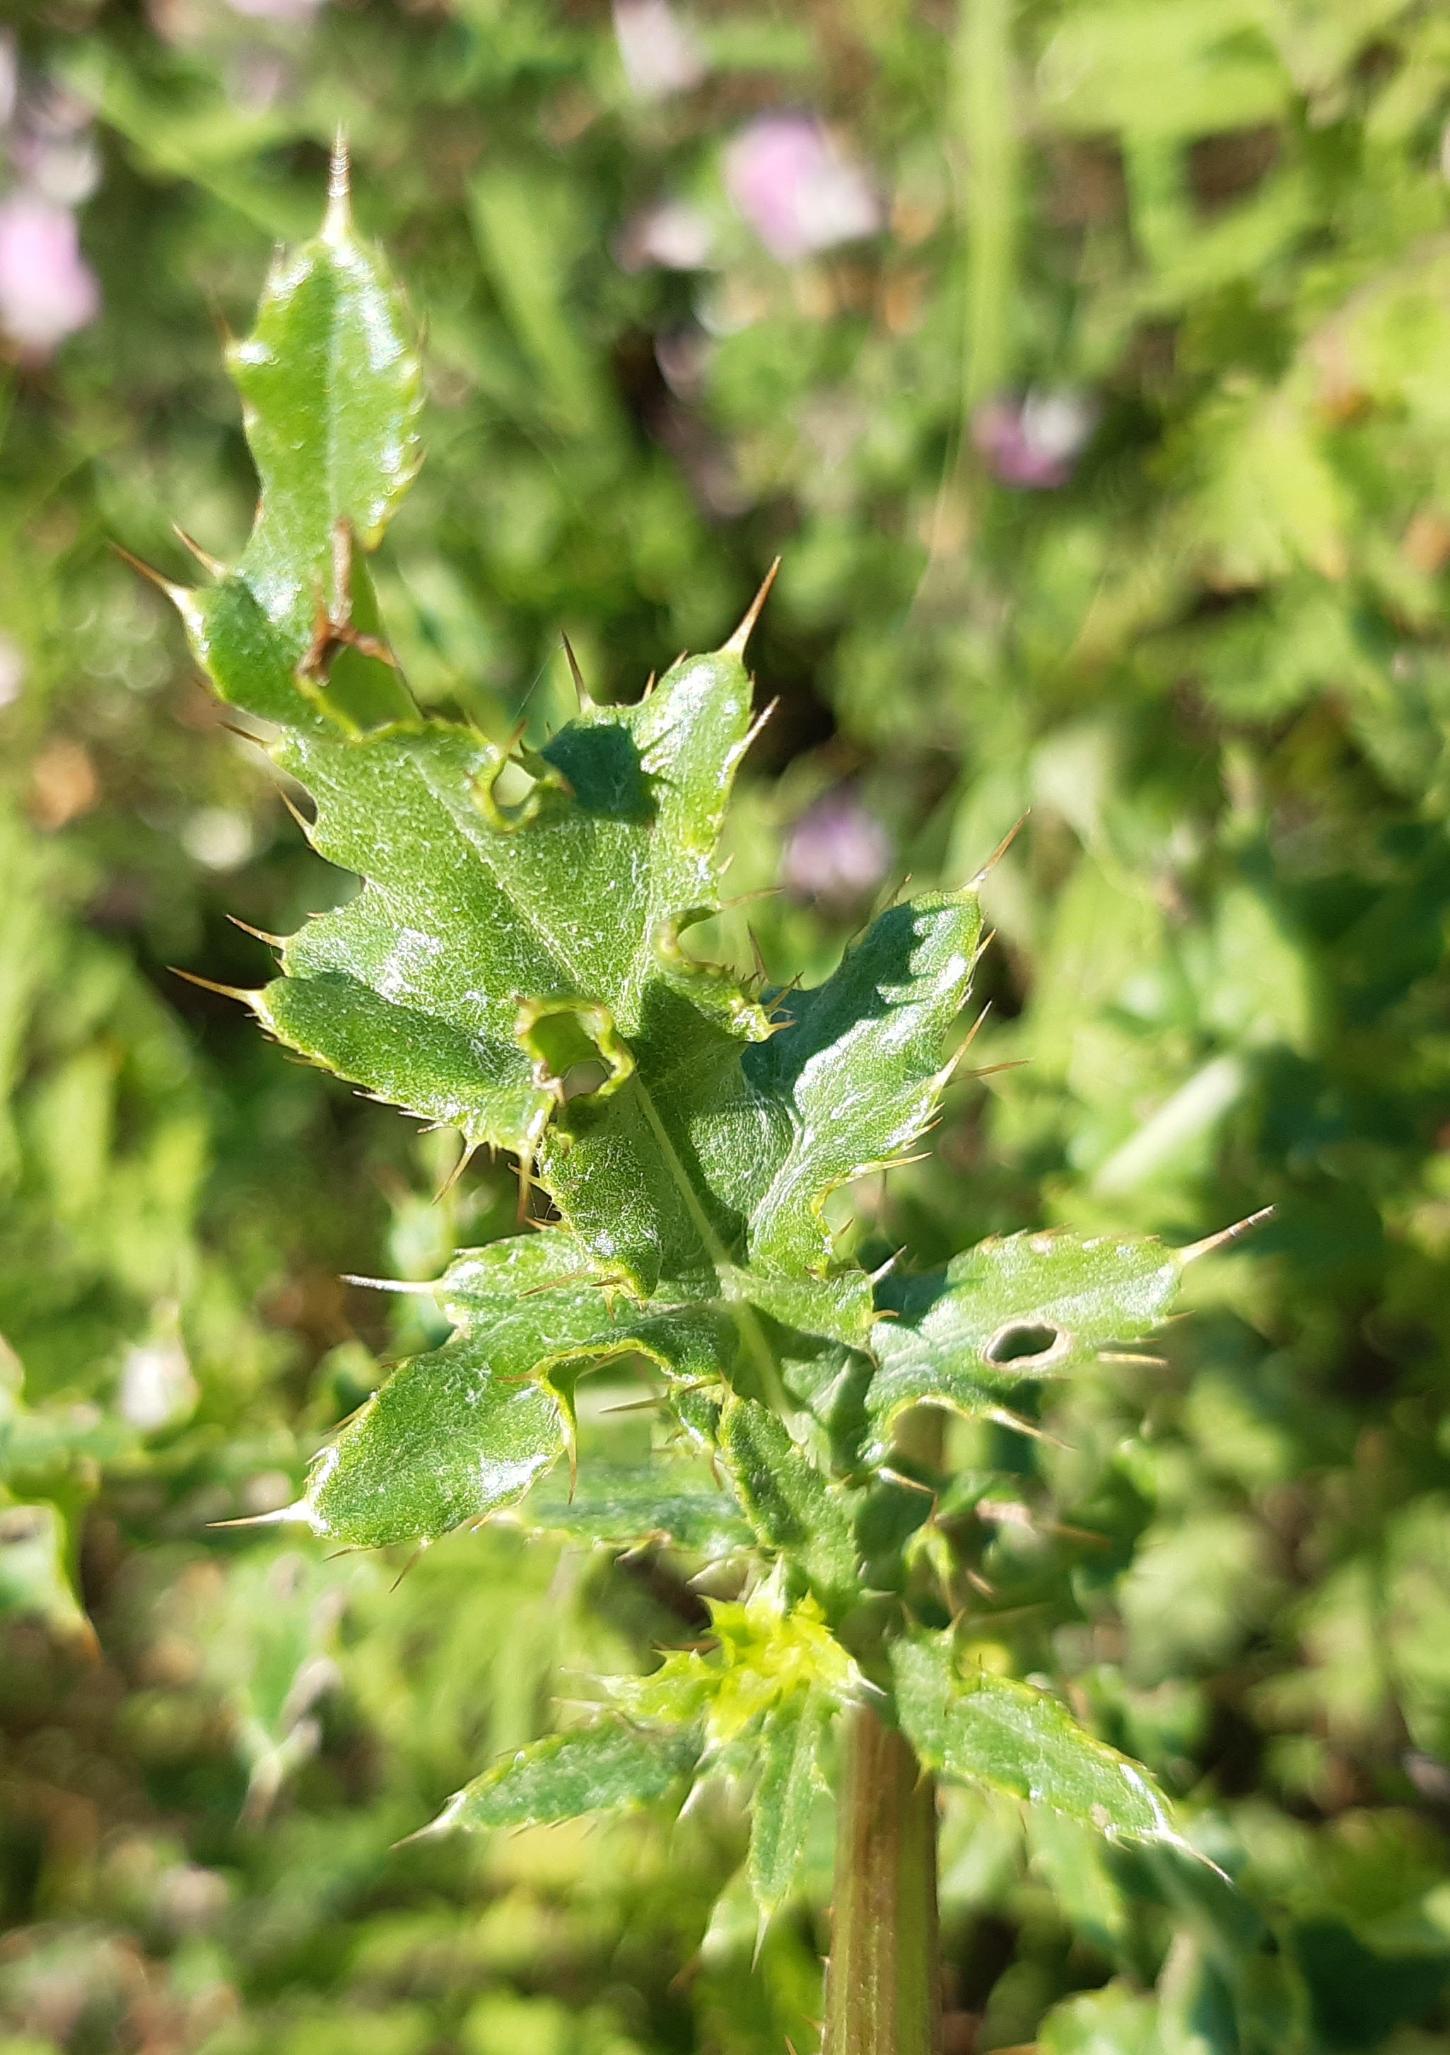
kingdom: Plantae
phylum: Tracheophyta
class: Magnoliopsida
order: Asterales
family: Asteraceae
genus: Cirsium
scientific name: Cirsium arvense
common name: Ager-tidsel
